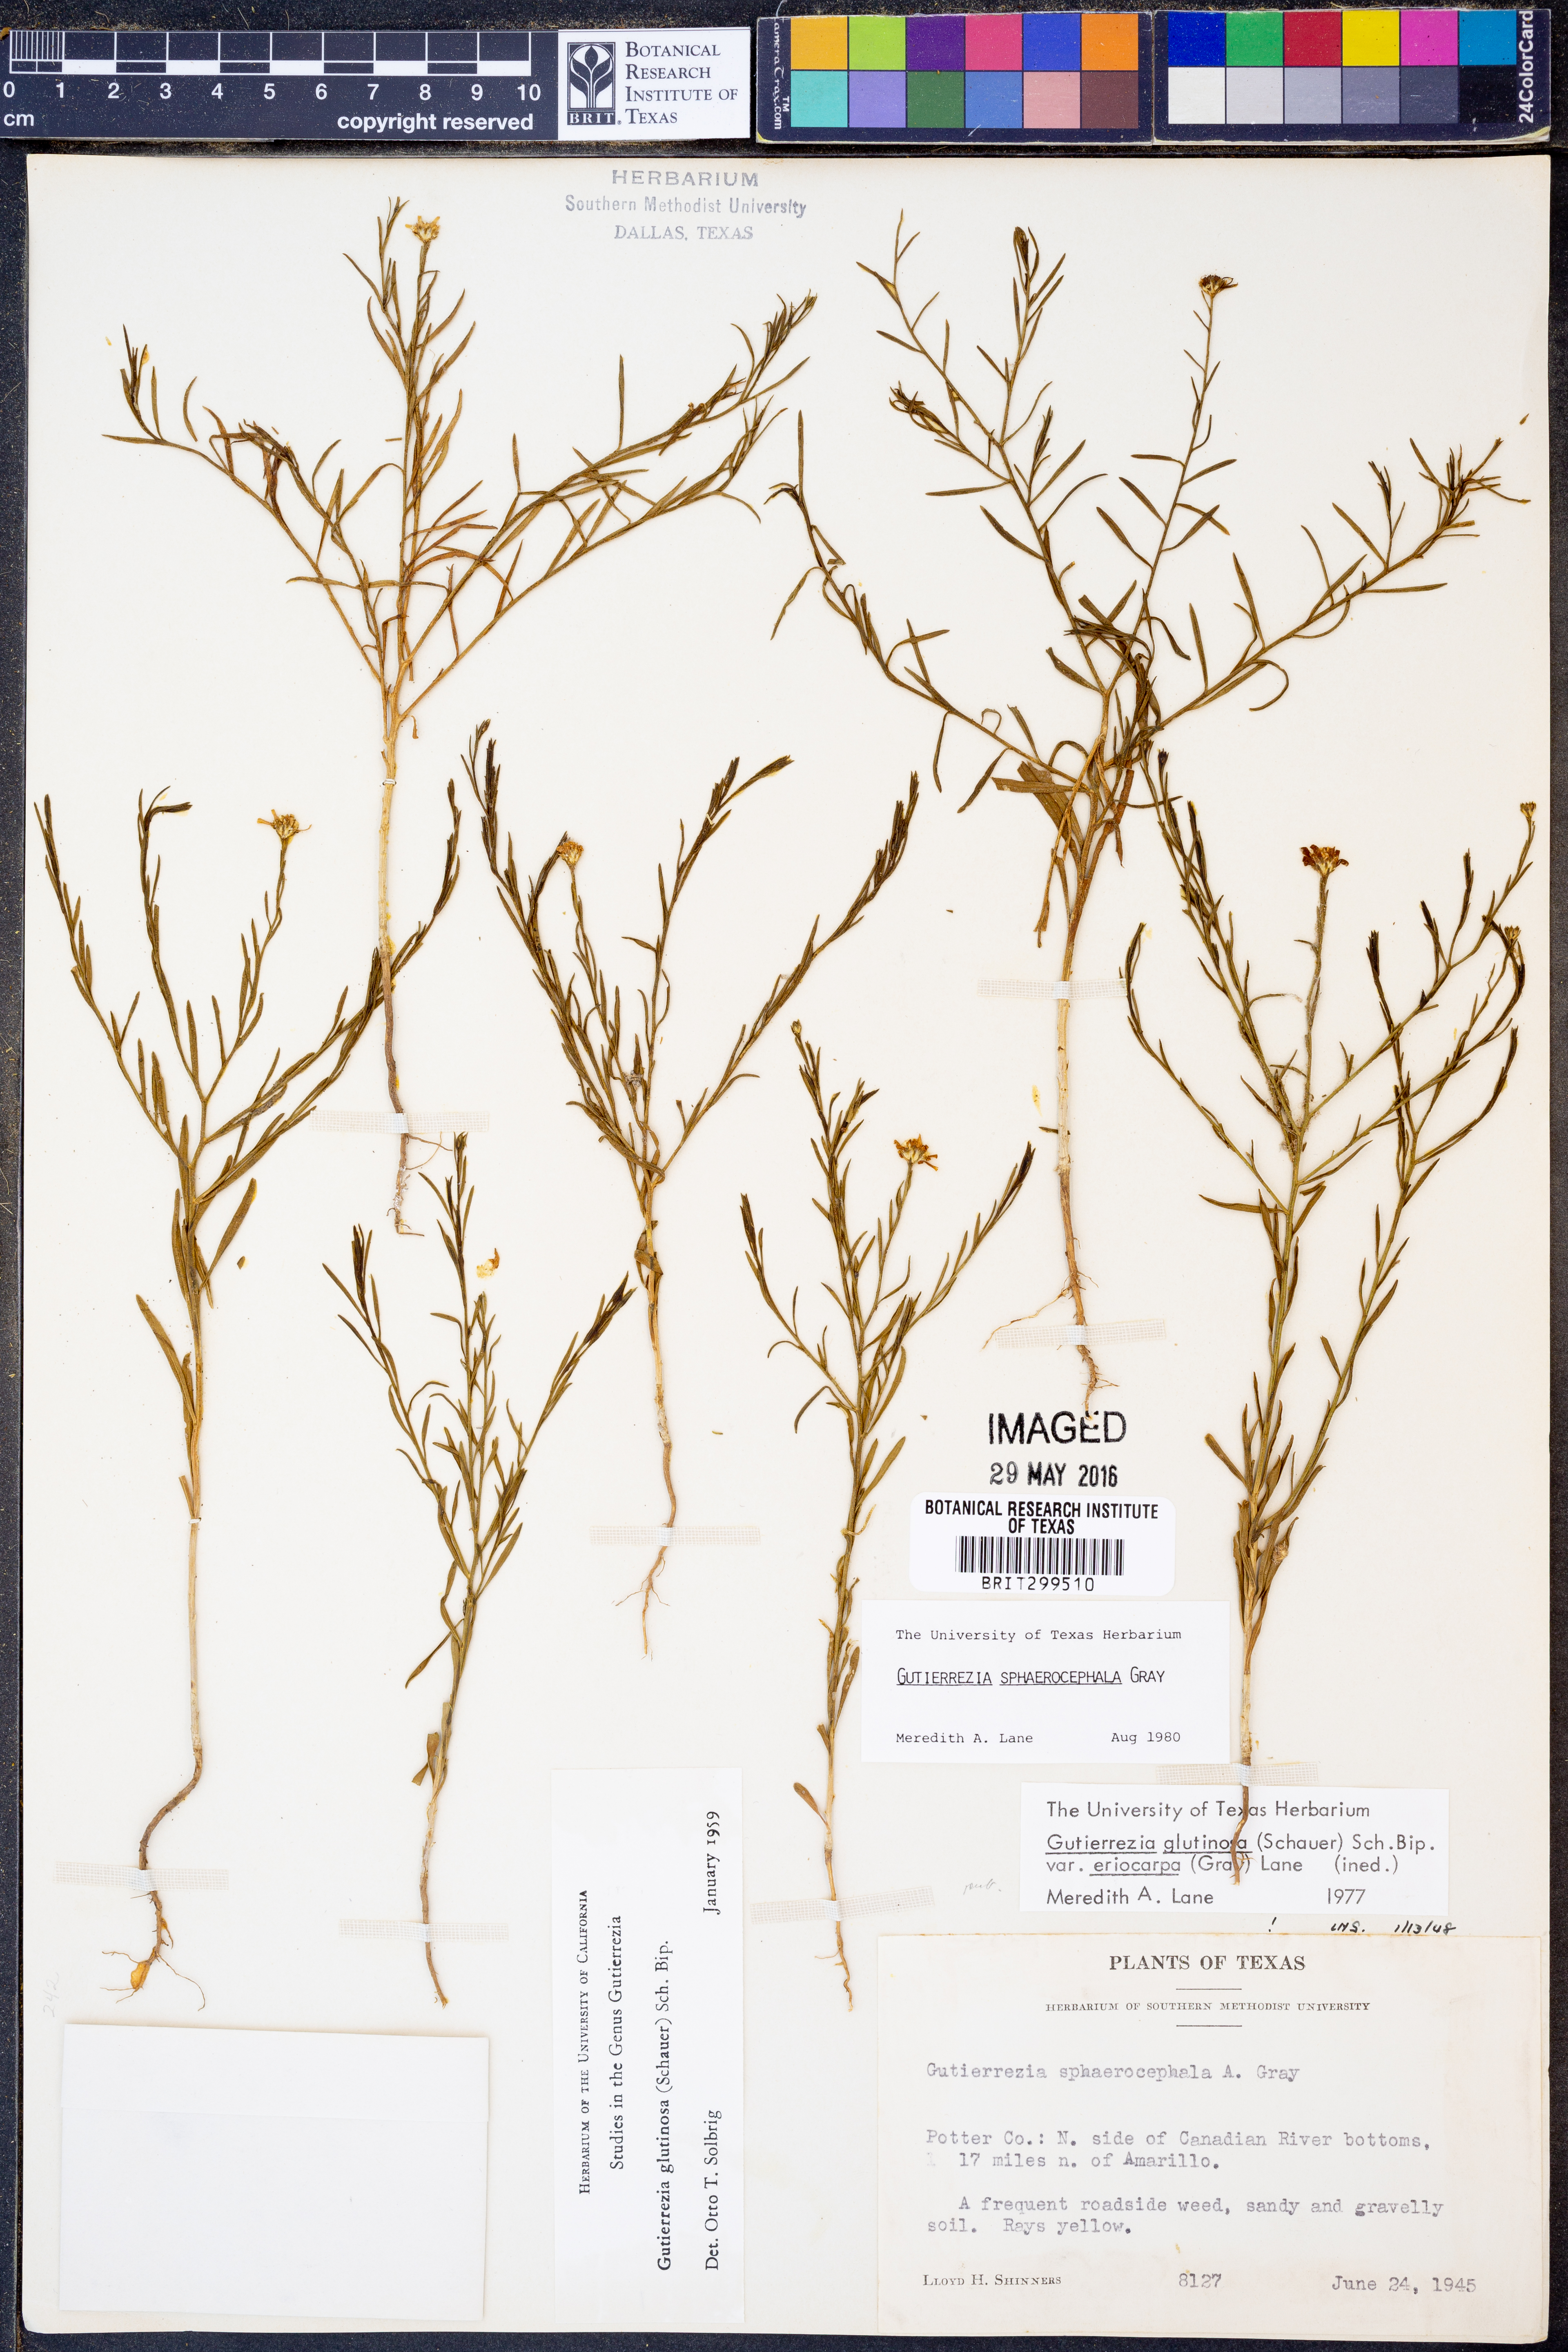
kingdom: Plantae
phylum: Tracheophyta
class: Magnoliopsida
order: Asterales
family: Asteraceae
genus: Gutierrezia
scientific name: Gutierrezia sphaerocephala
